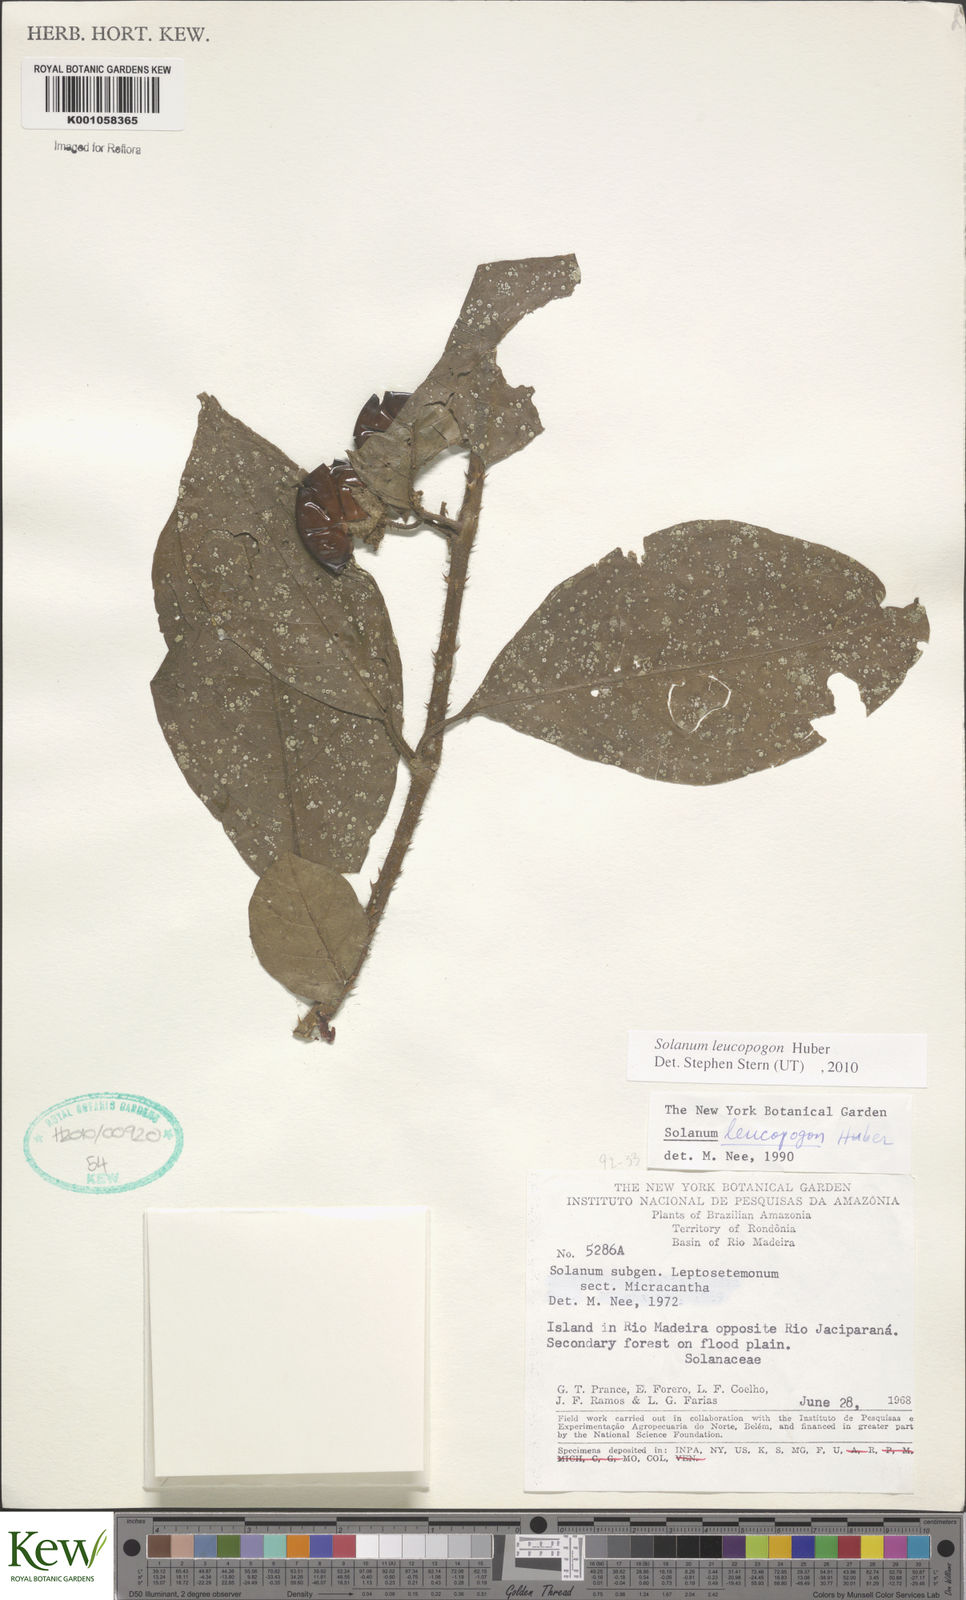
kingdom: Plantae
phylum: Tracheophyta
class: Magnoliopsida
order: Solanales
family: Solanaceae
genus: Solanum
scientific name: Solanum leucopogon
